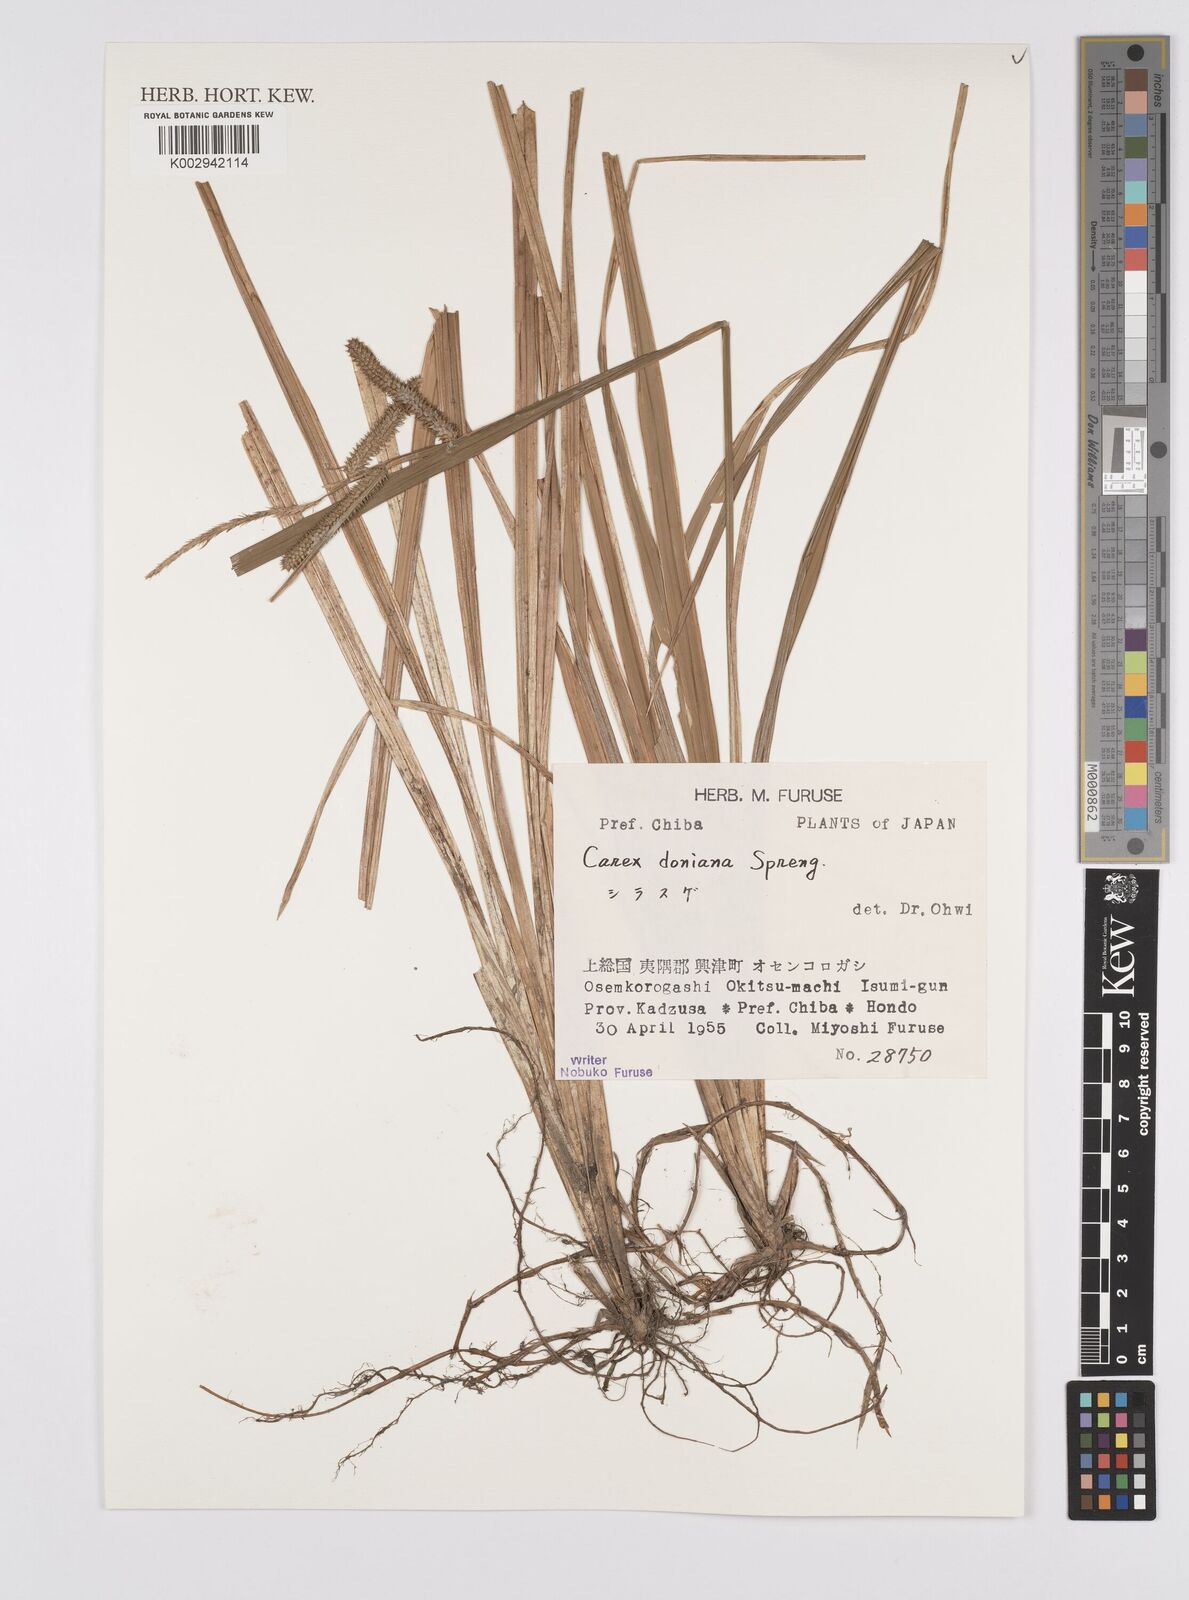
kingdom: Plantae
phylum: Tracheophyta
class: Liliopsida
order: Poales
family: Cyperaceae
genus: Carex
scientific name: Carex japonica
